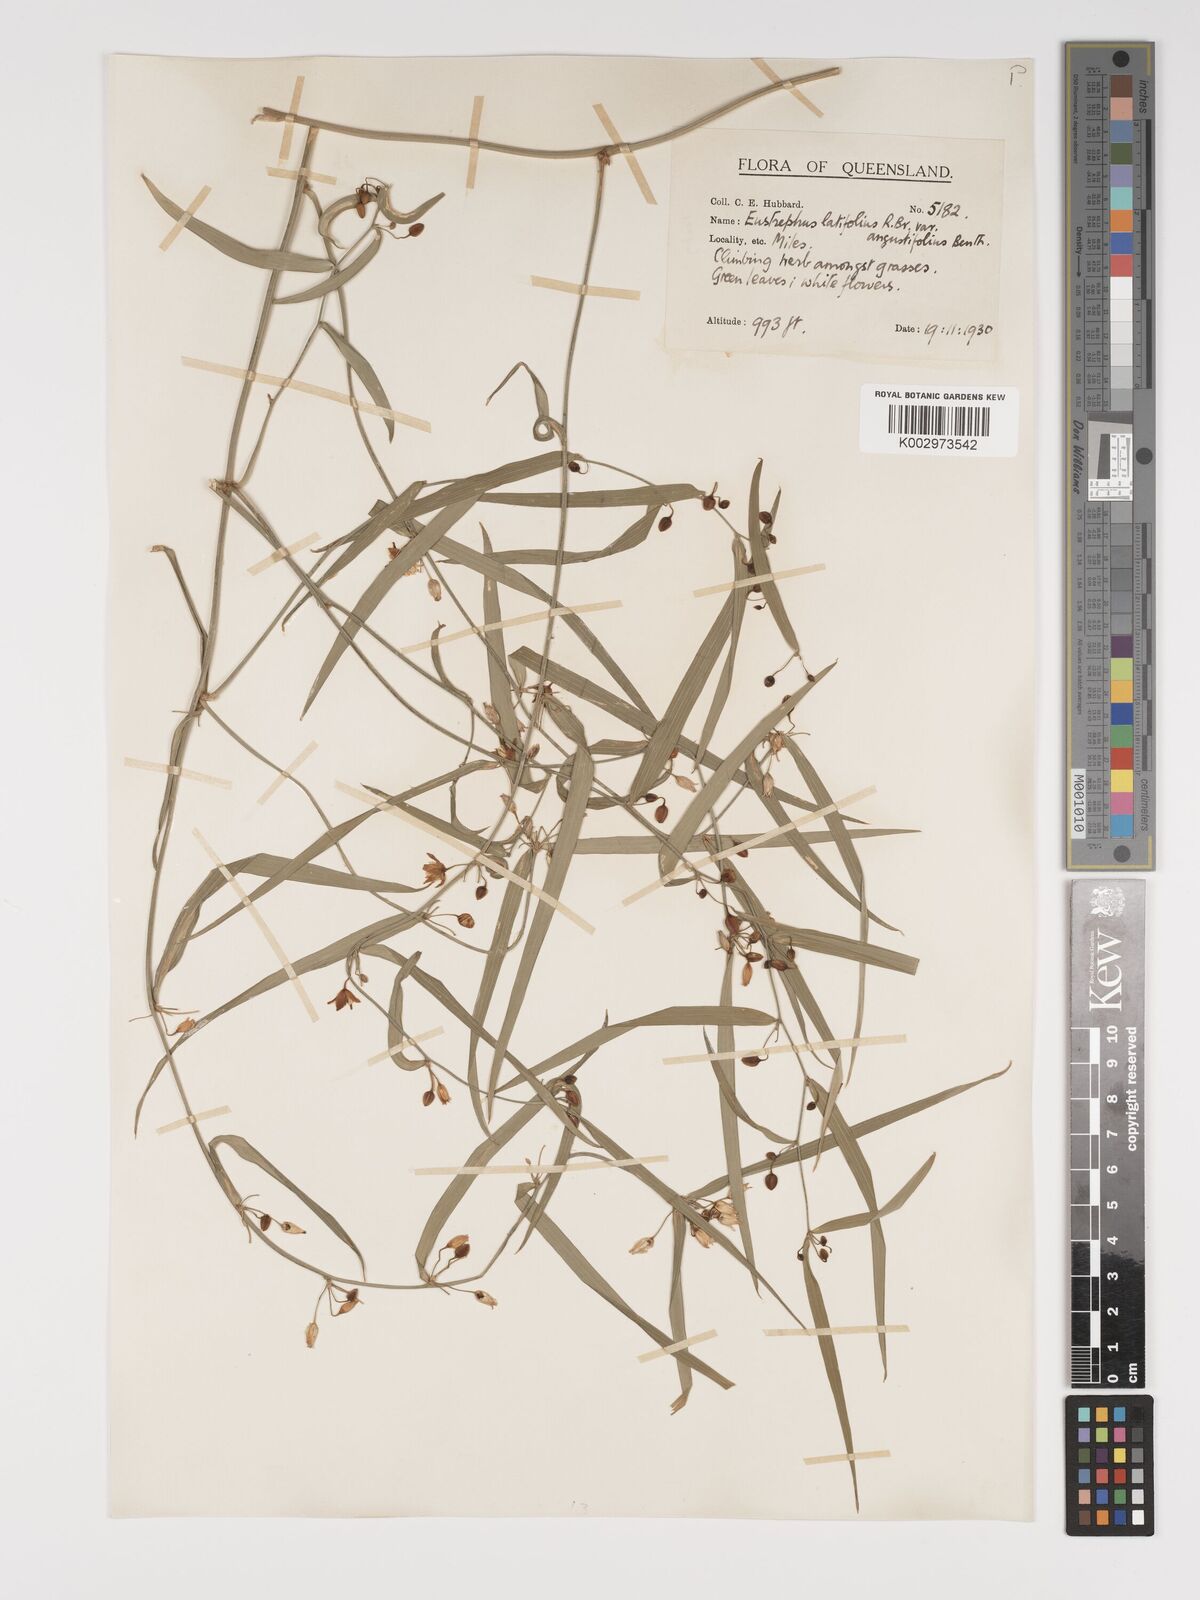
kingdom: Plantae
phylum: Tracheophyta
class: Liliopsida
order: Asparagales
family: Asparagaceae
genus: Eustrephus
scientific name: Eustrephus latifolius
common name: Orangevine
